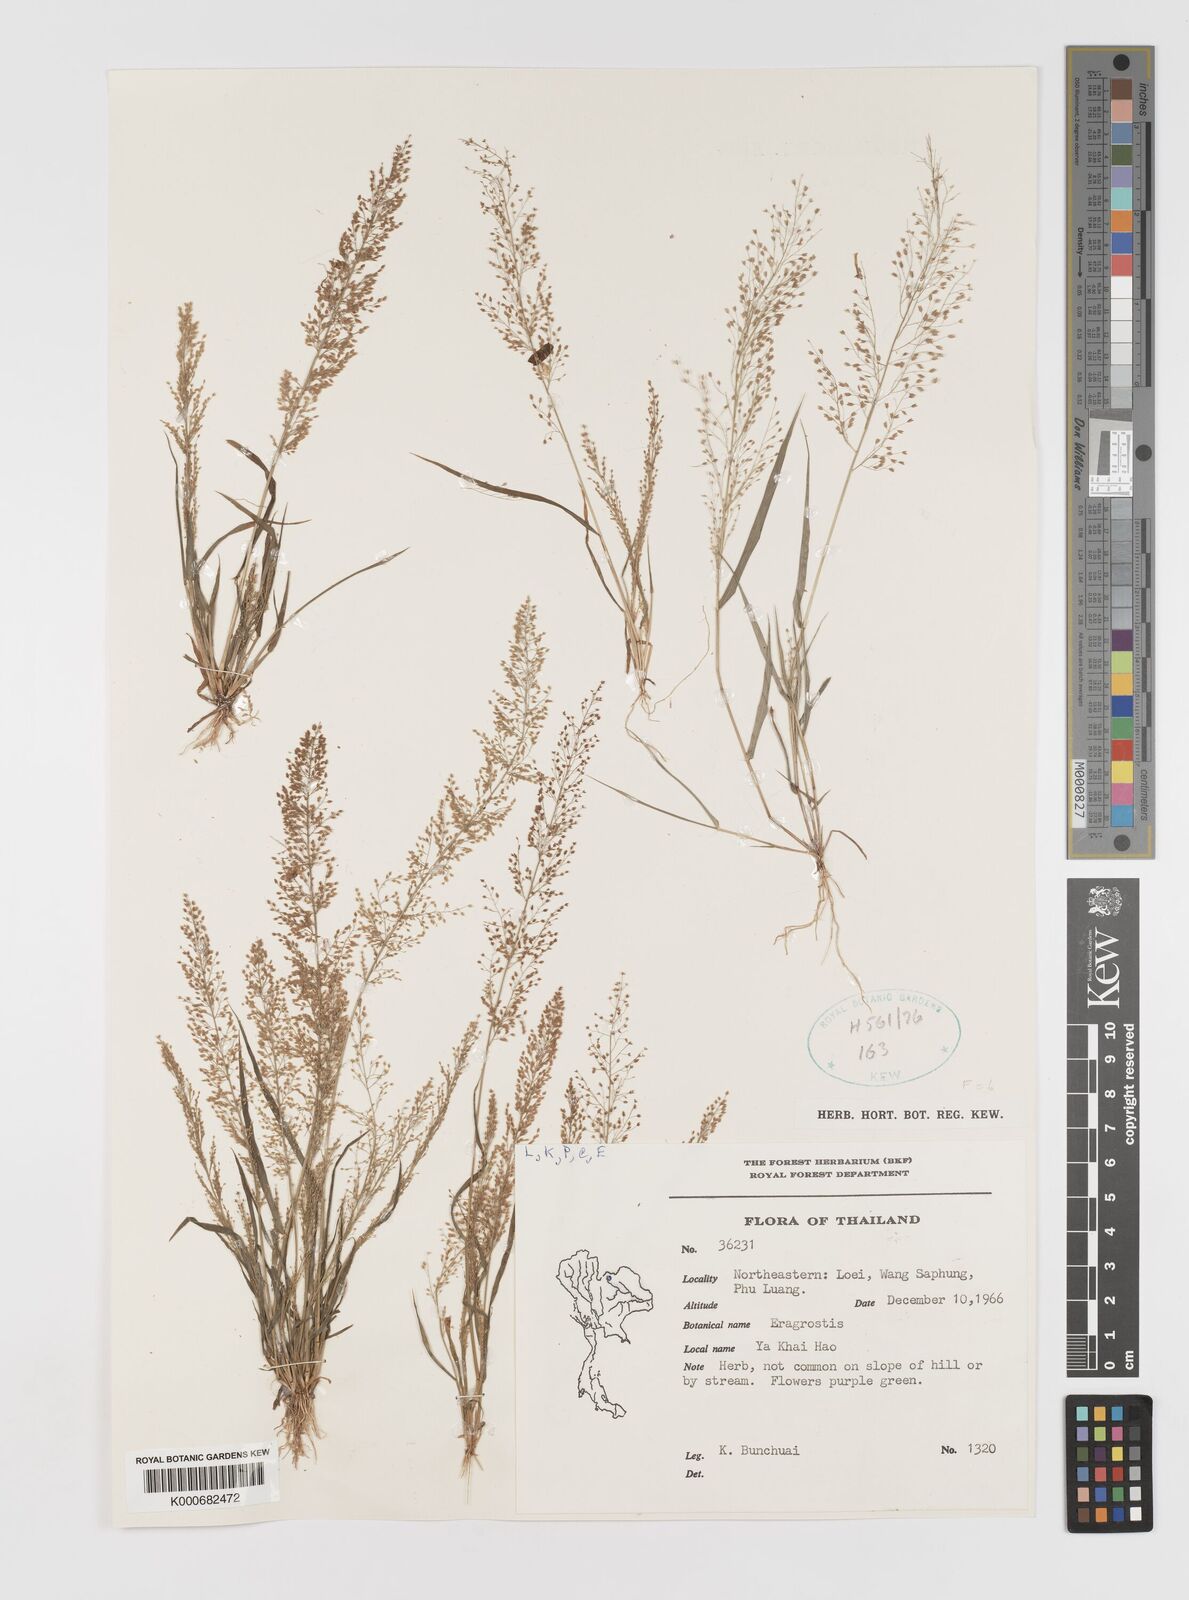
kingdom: Plantae
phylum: Tracheophyta
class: Liliopsida
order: Poales
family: Poaceae
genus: Eragrostis
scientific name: Eragrostis japonica
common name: Pond lovegrass
